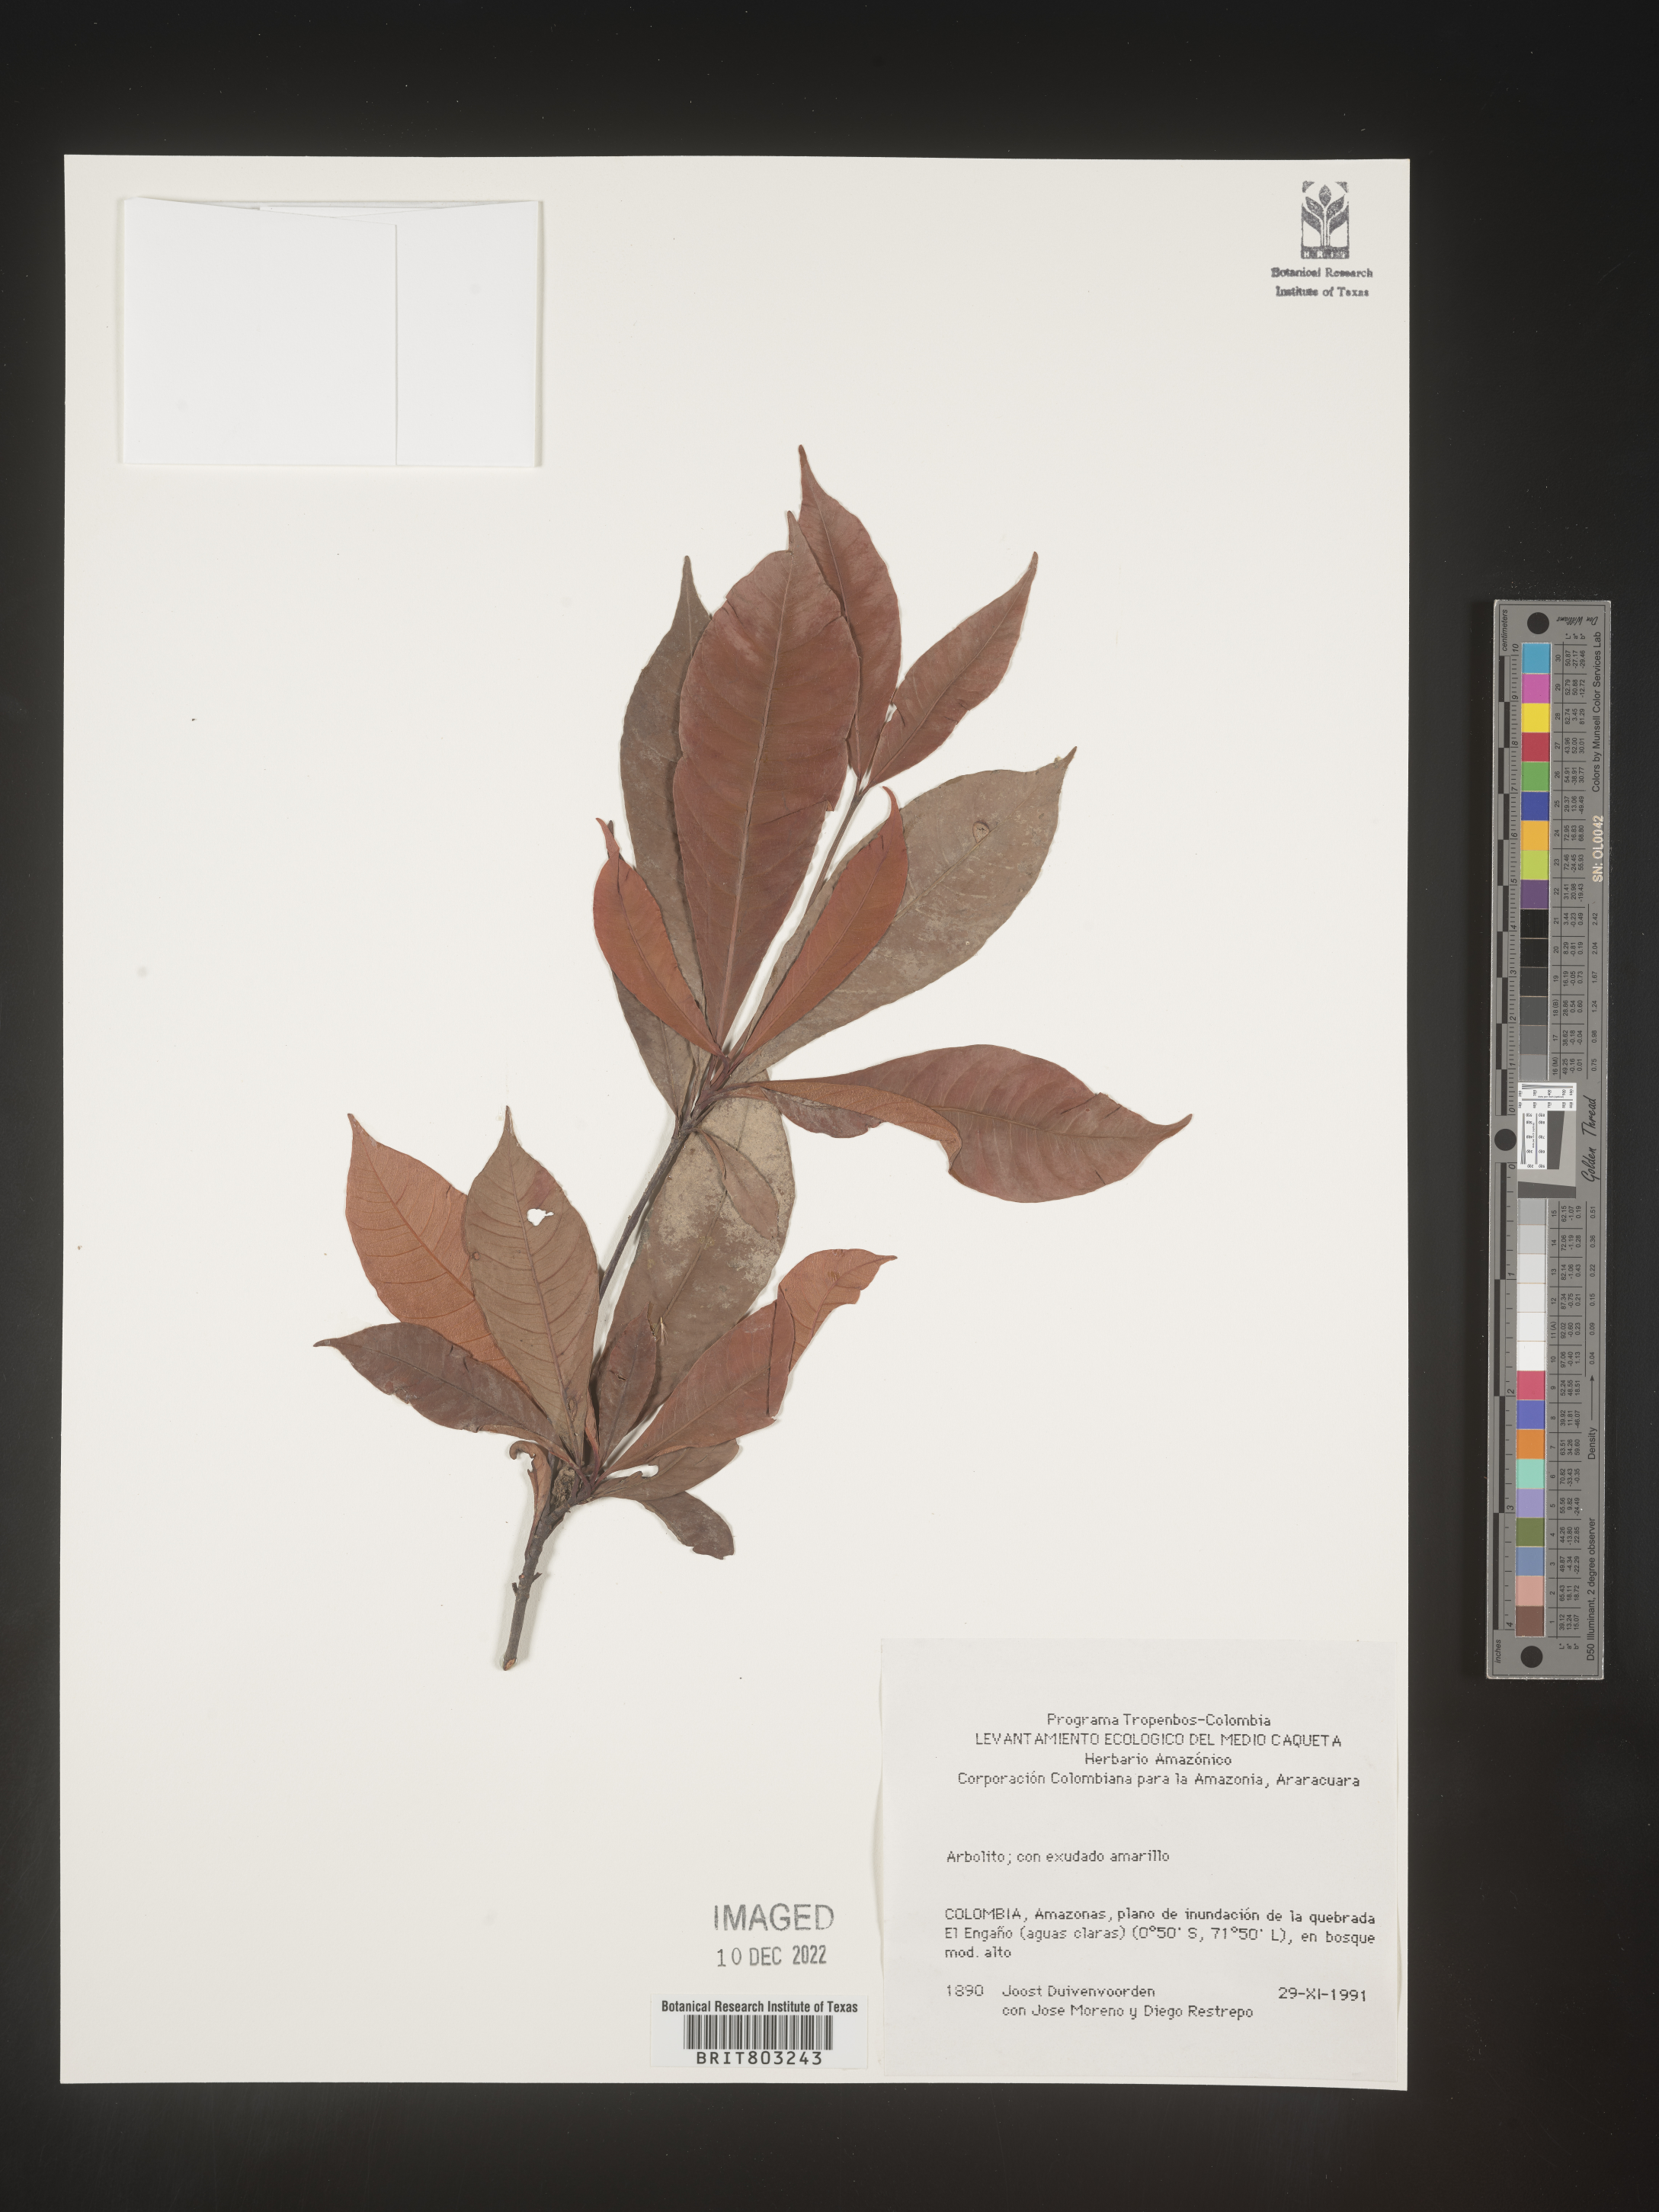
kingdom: Plantae
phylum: Tracheophyta
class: Magnoliopsida
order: Malpighiales
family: Clusiaceae
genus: Tovomita
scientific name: Tovomita
